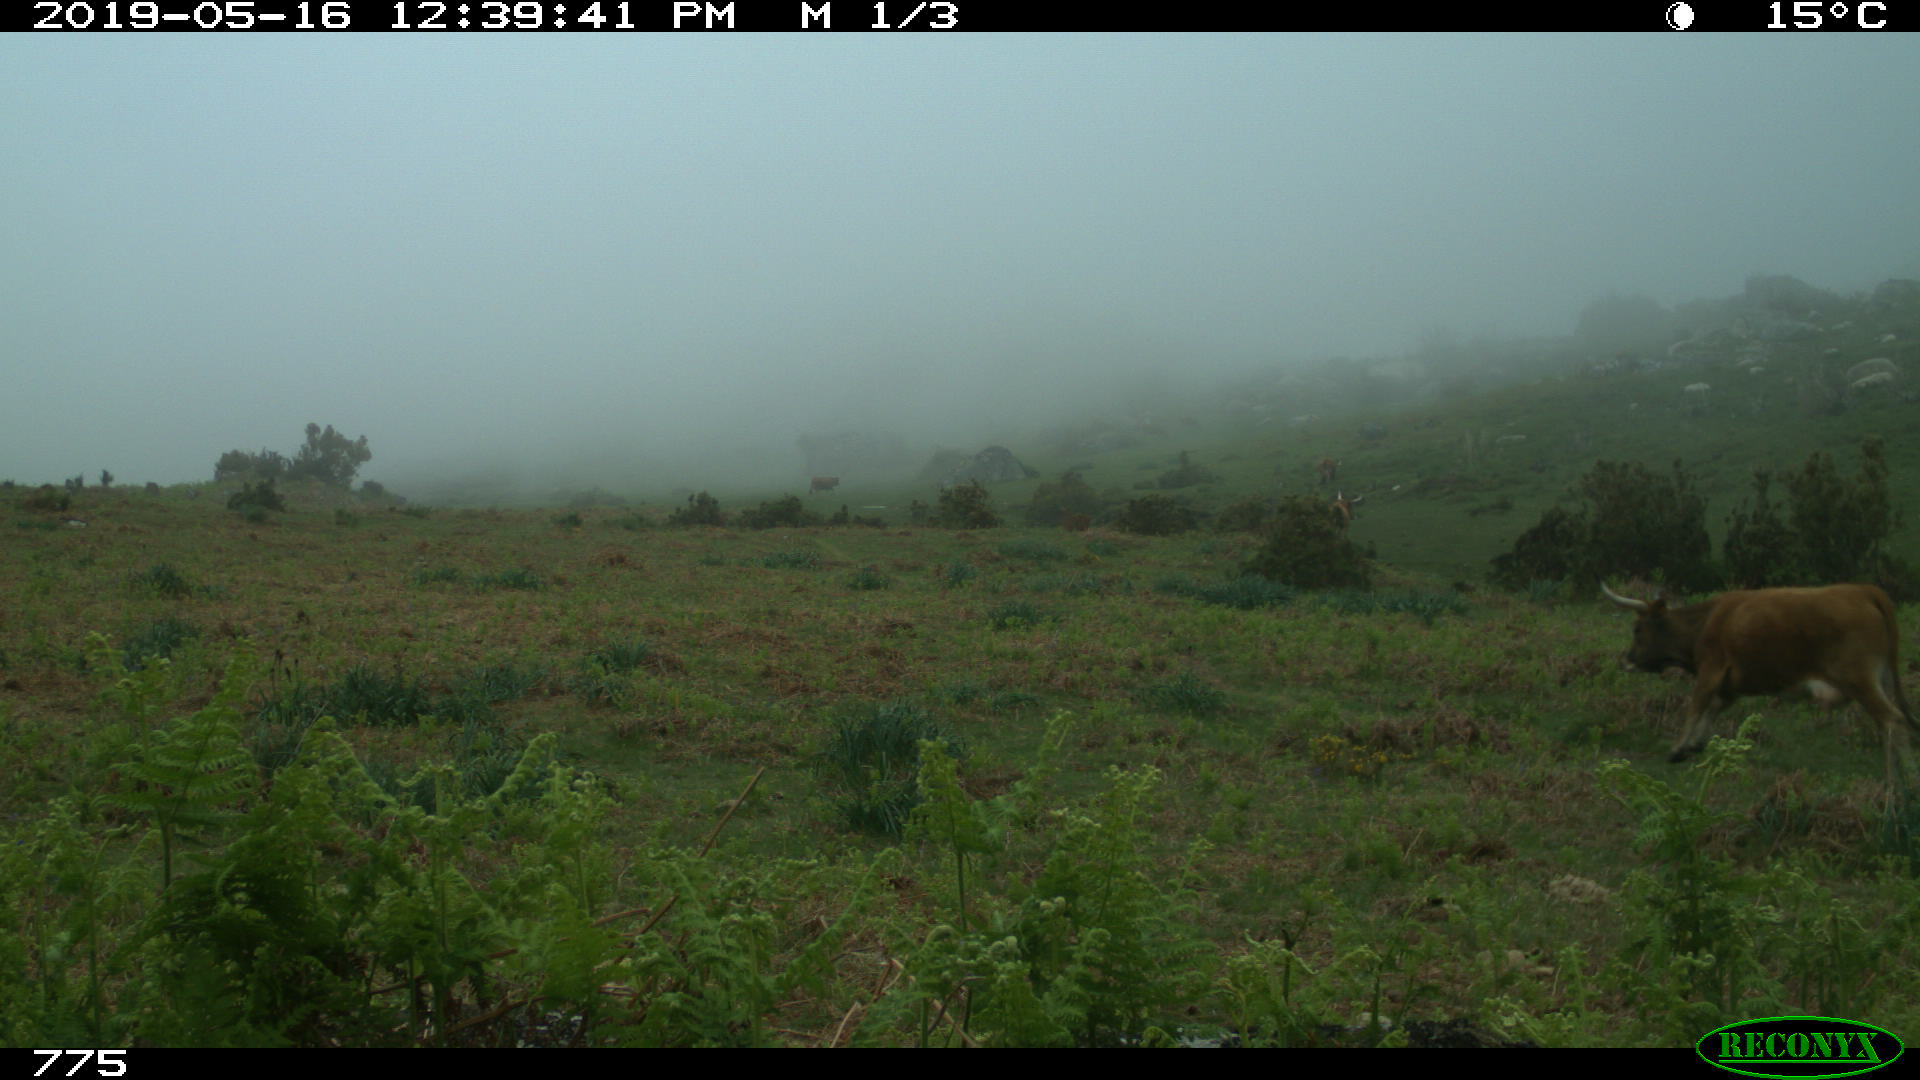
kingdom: Animalia
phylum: Chordata
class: Mammalia
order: Artiodactyla
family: Bovidae
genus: Bos
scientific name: Bos taurus
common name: Domesticated cattle
